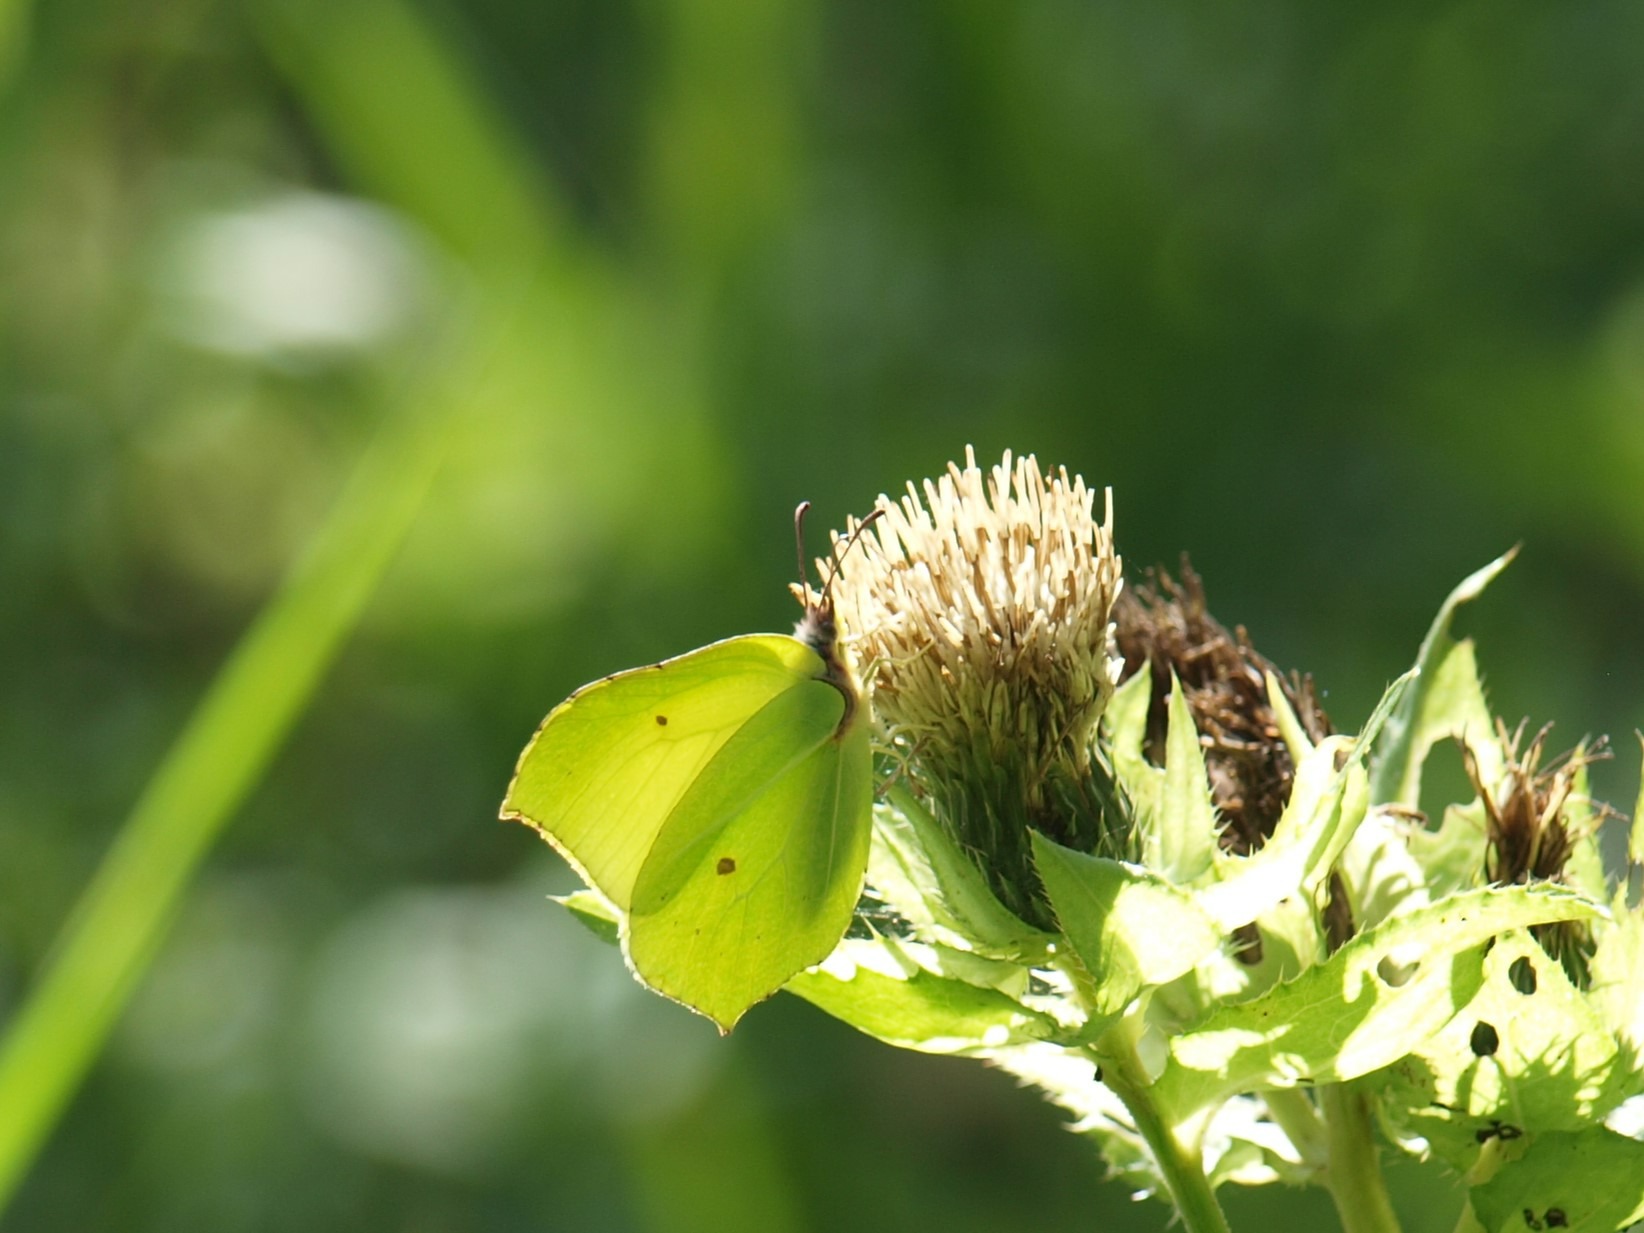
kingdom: Animalia
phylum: Arthropoda
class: Insecta
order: Lepidoptera
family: Pieridae
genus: Gonepteryx
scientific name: Gonepteryx rhamni
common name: Citronsommerfugl
